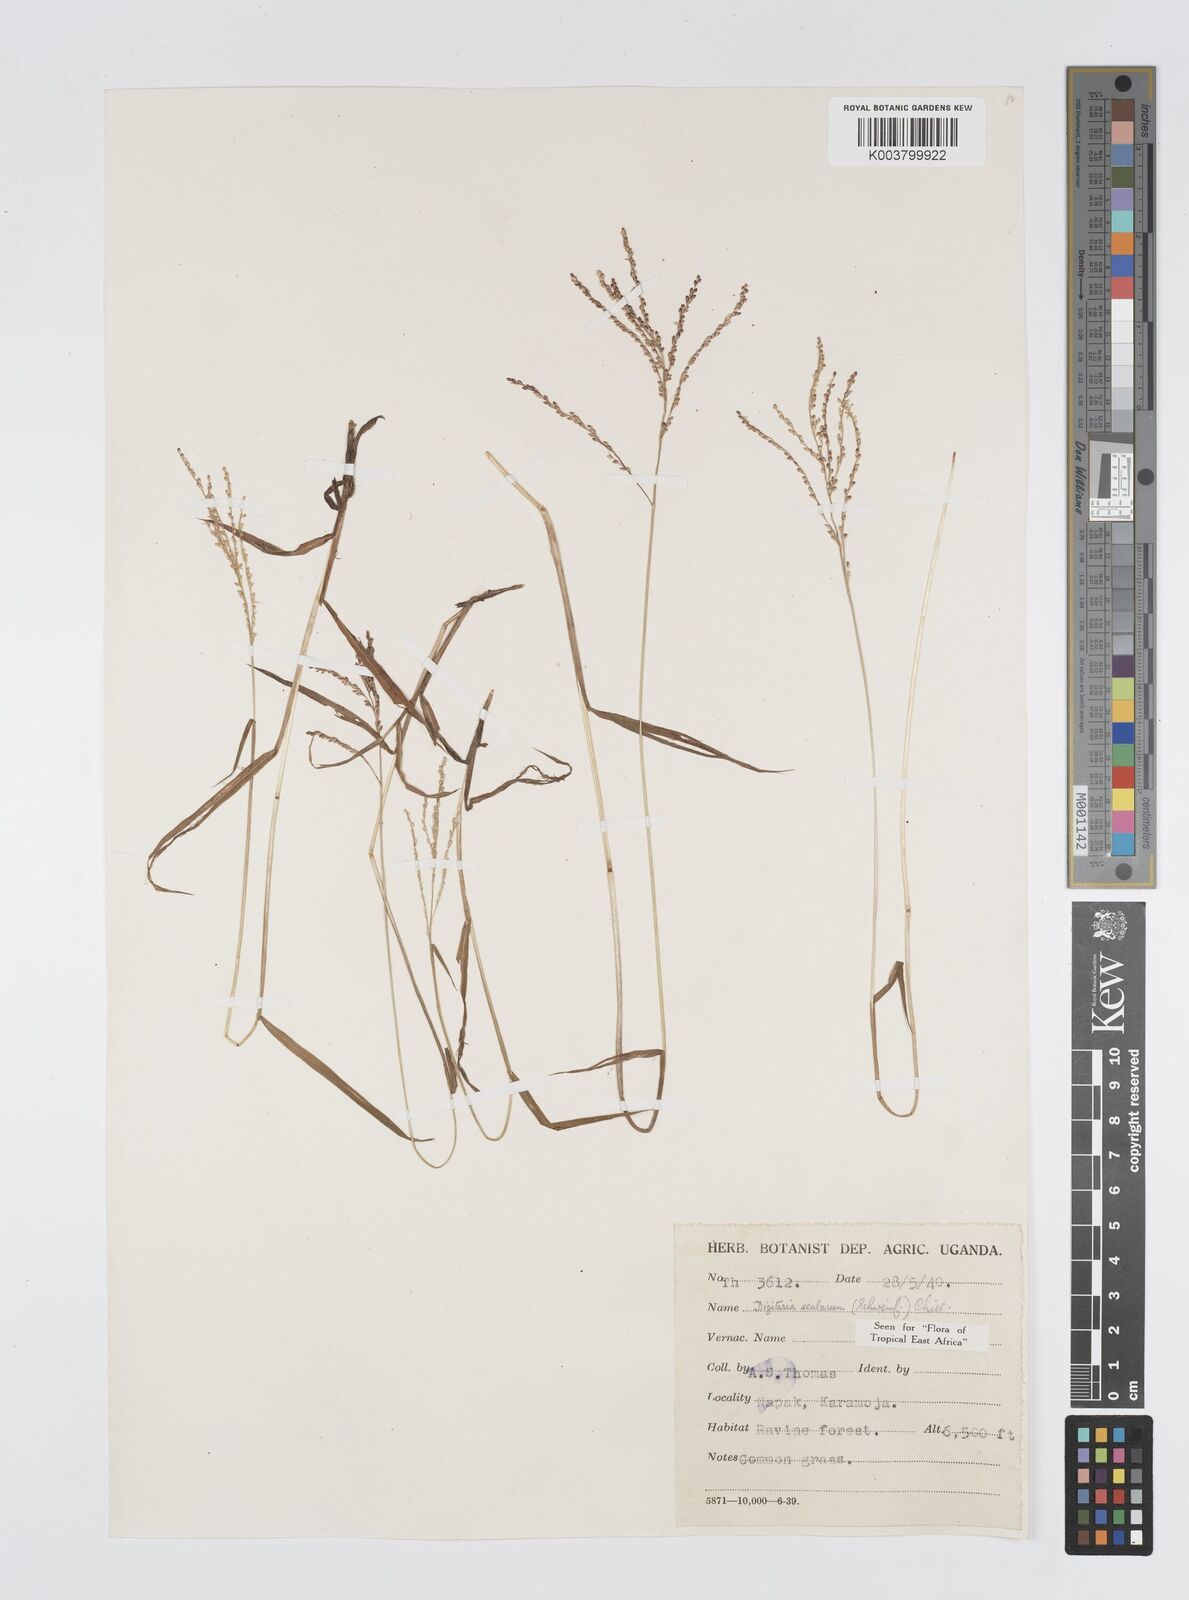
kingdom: Plantae
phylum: Tracheophyta
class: Liliopsida
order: Poales
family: Poaceae
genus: Digitaria
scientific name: Digitaria abyssinica
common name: African couchgrass
